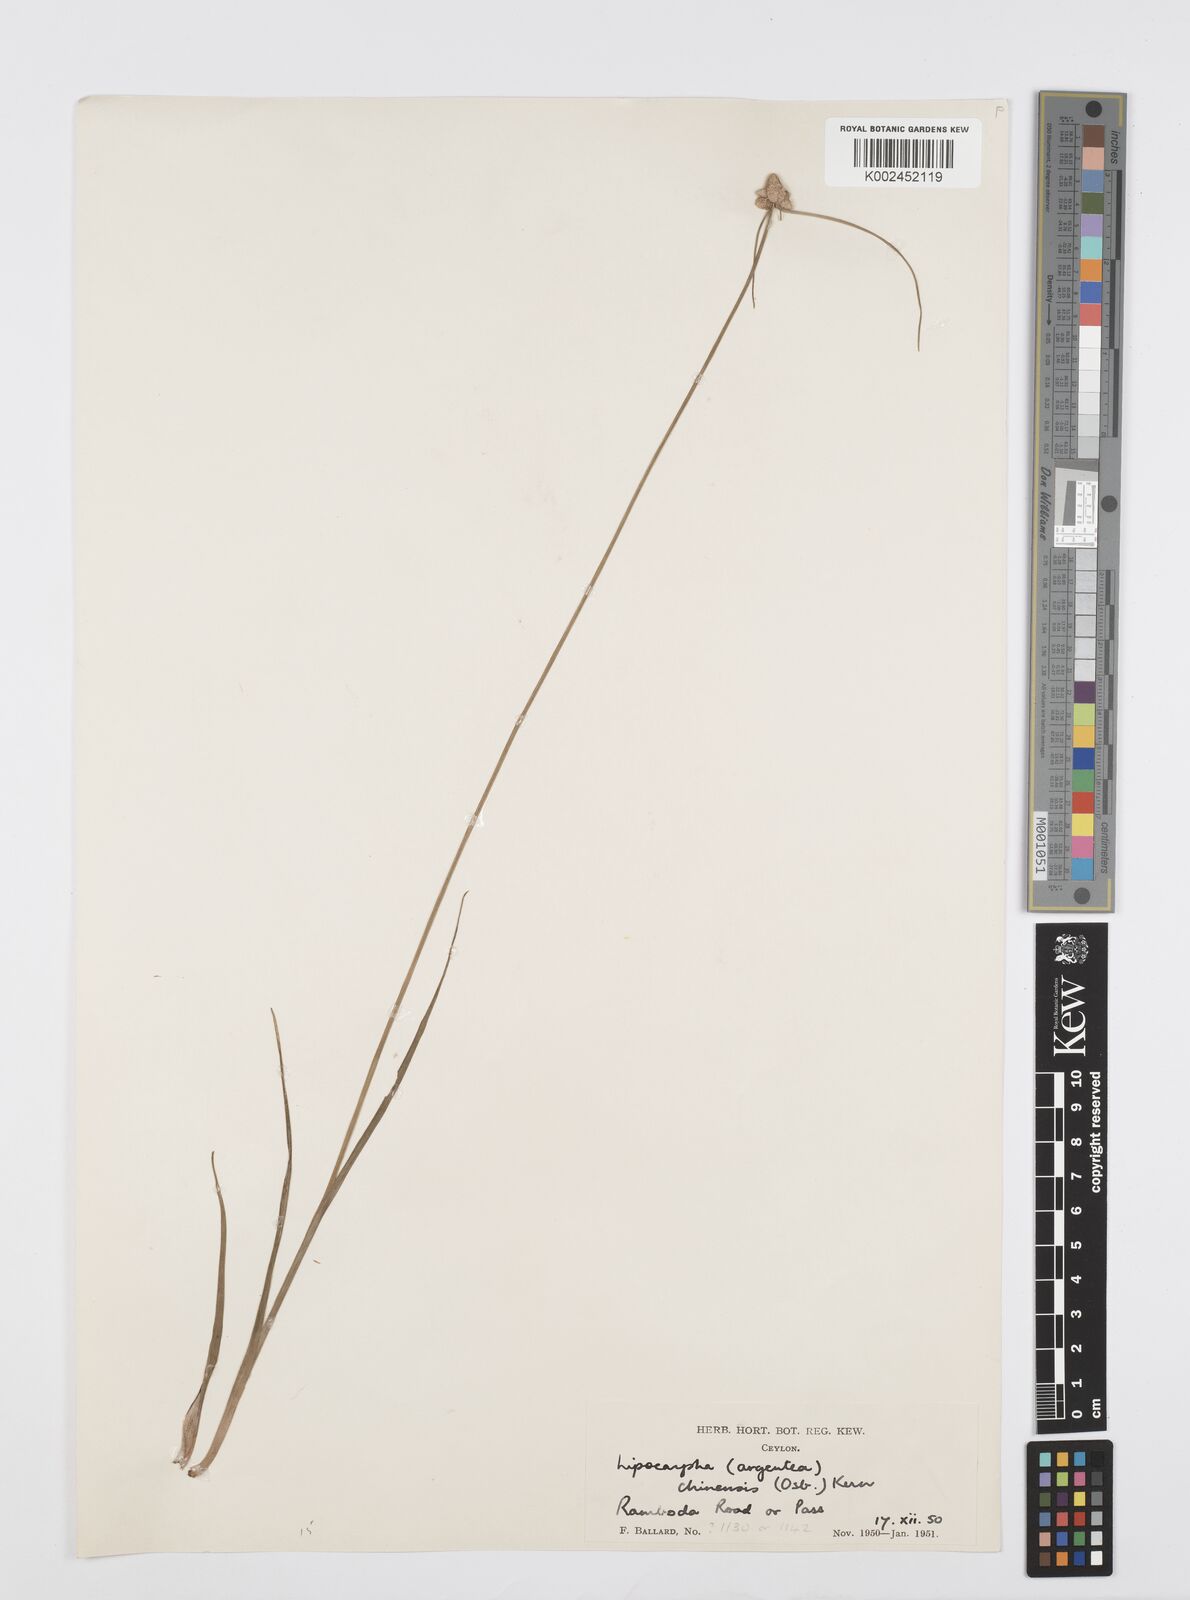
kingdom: Plantae
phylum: Tracheophyta
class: Liliopsida
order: Poales
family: Cyperaceae
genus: Cyperus
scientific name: Cyperus
